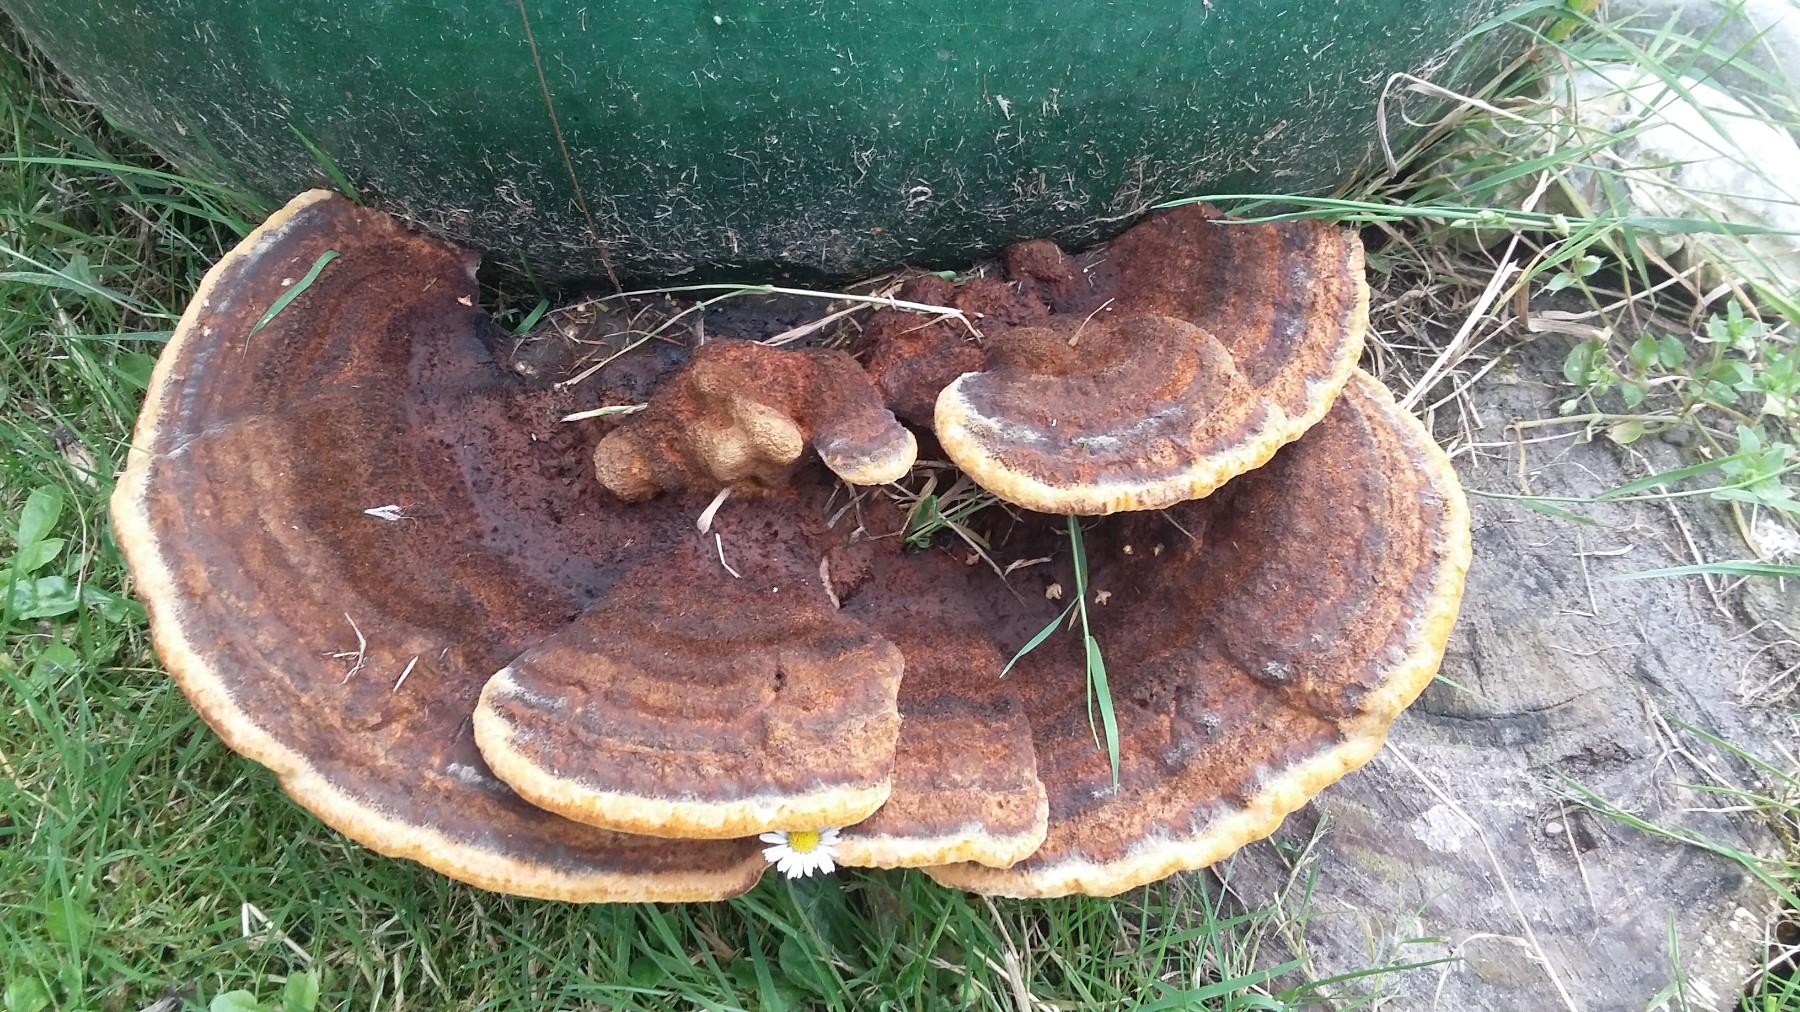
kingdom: Fungi
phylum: Basidiomycota
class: Agaricomycetes
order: Polyporales
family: Laetiporaceae
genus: Phaeolus
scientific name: Phaeolus schweinitzii
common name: brunporesvamp
